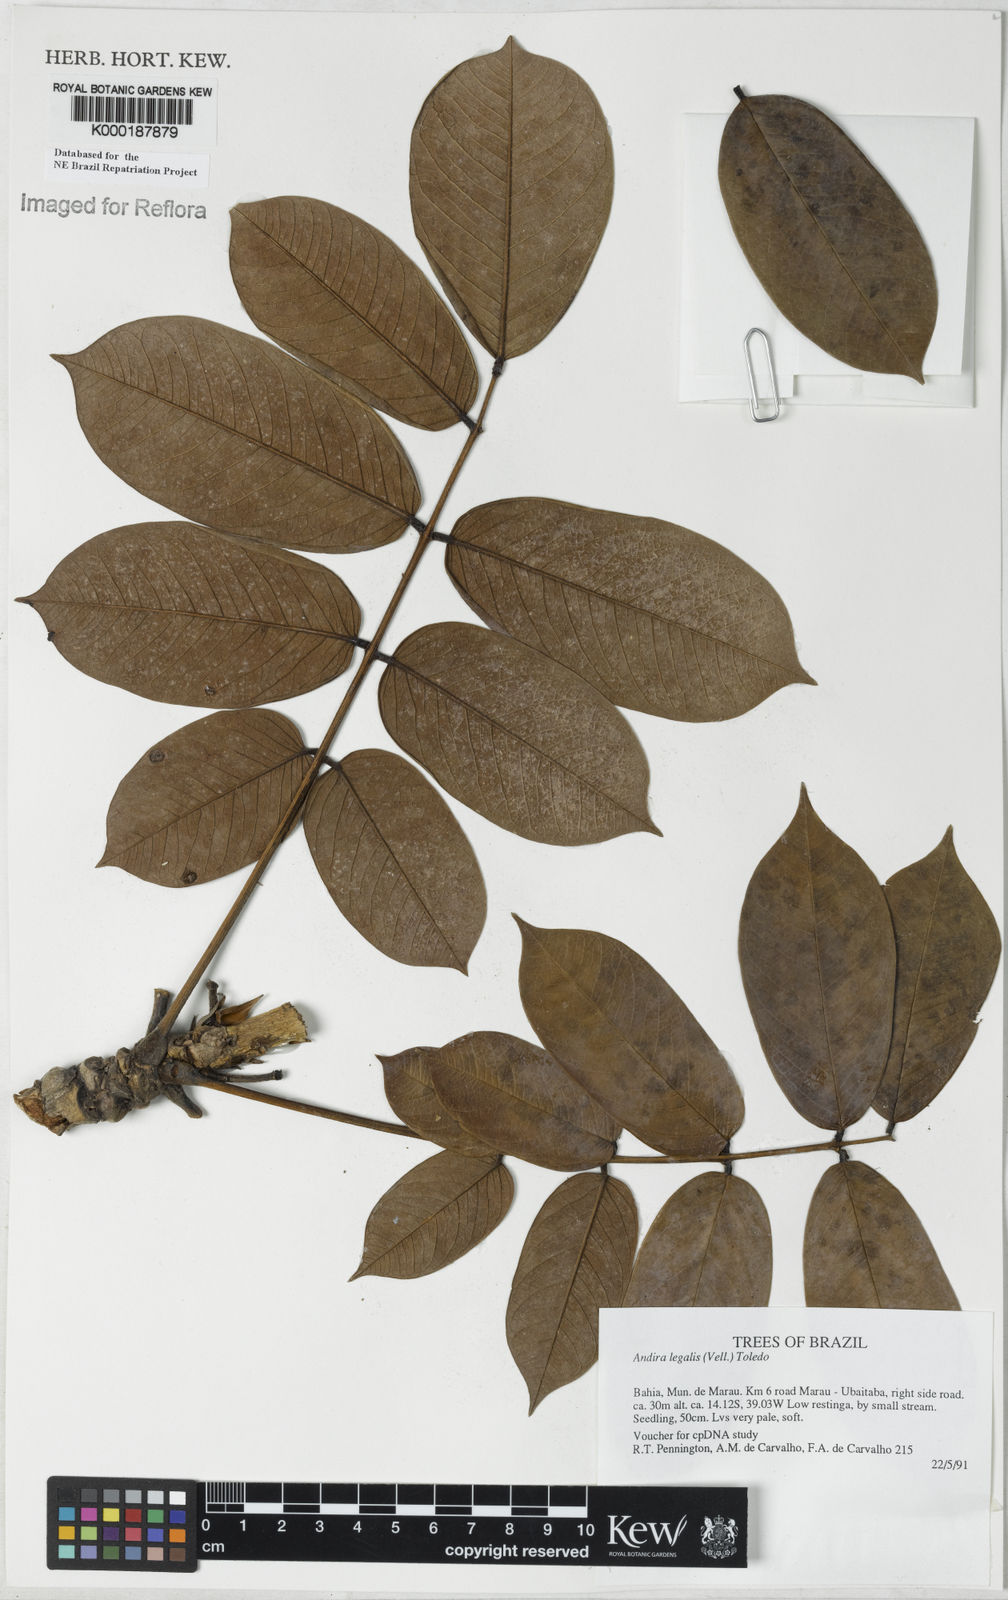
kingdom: Plantae
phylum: Tracheophyta
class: Magnoliopsida
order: Fabales
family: Fabaceae
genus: Andira
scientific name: Andira legalis
